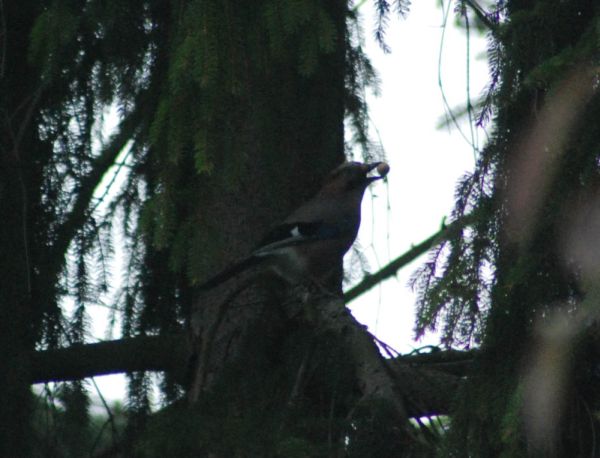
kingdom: Animalia
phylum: Chordata
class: Aves
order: Passeriformes
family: Corvidae
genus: Garrulus
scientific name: Garrulus glandarius
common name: Eurasian jay
